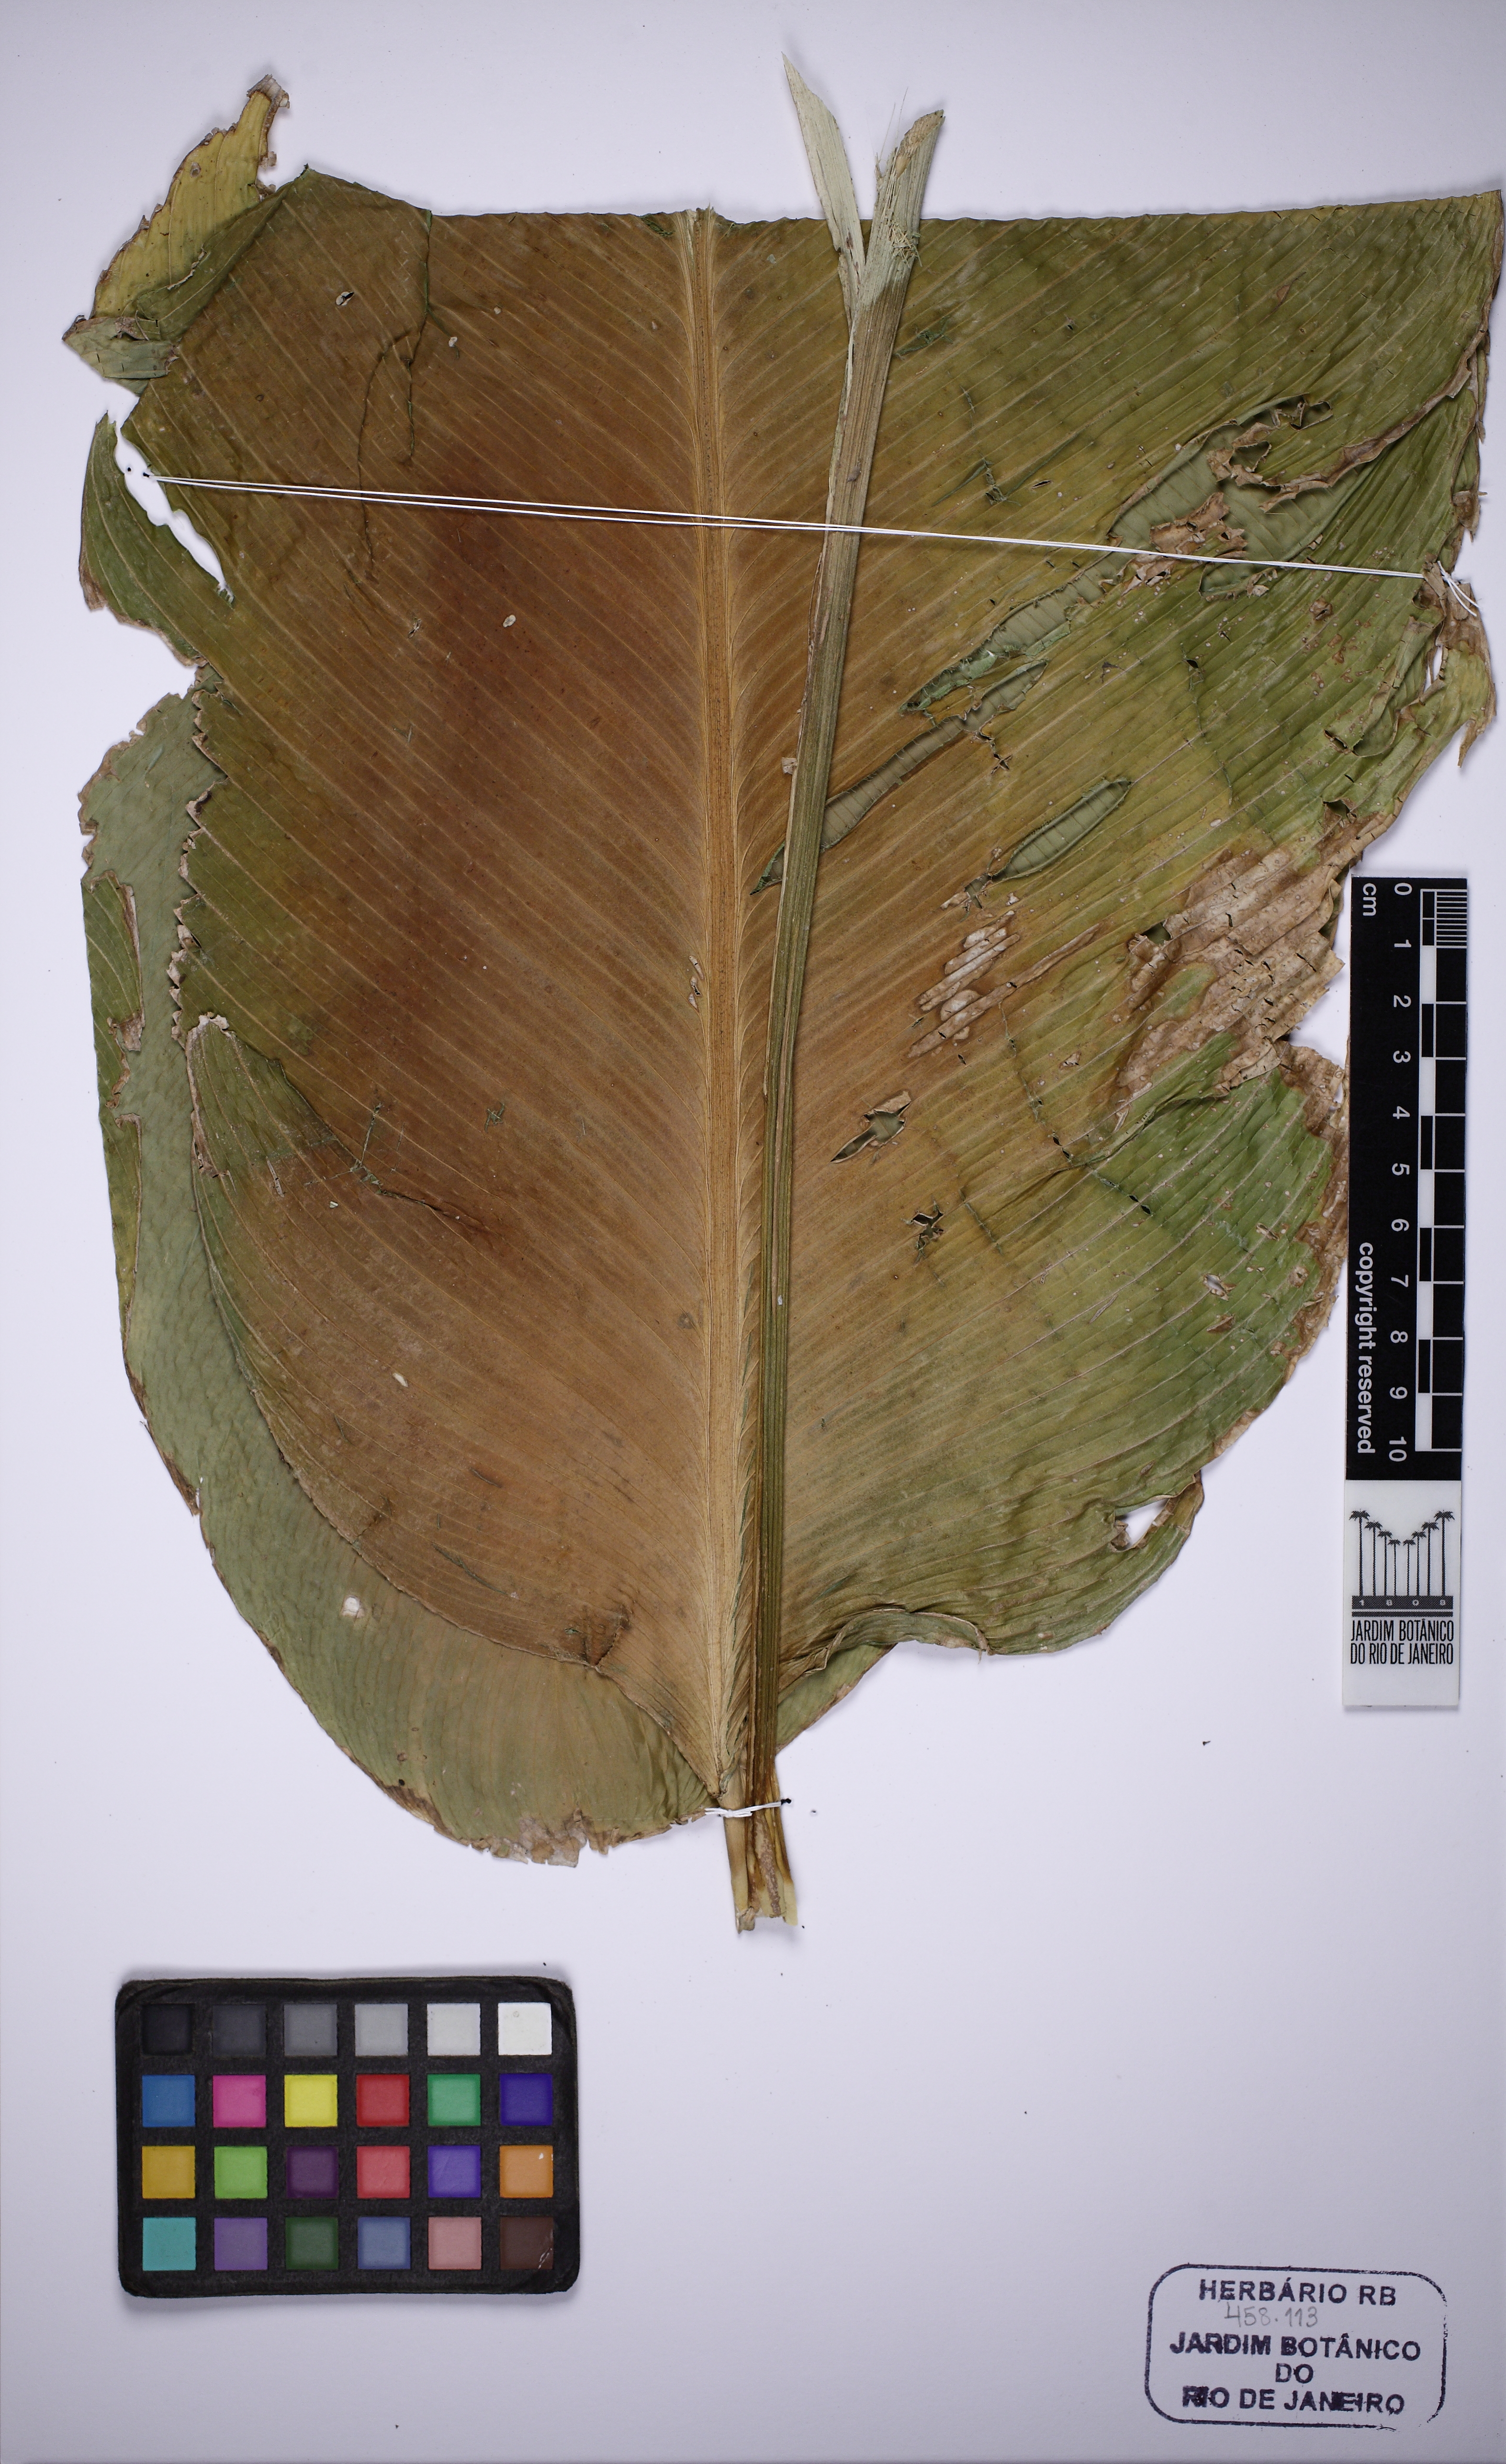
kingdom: Plantae
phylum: Tracheophyta
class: Liliopsida
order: Zingiberales
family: Marantaceae
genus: Goeppertia
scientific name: Goeppertia cylindrica
